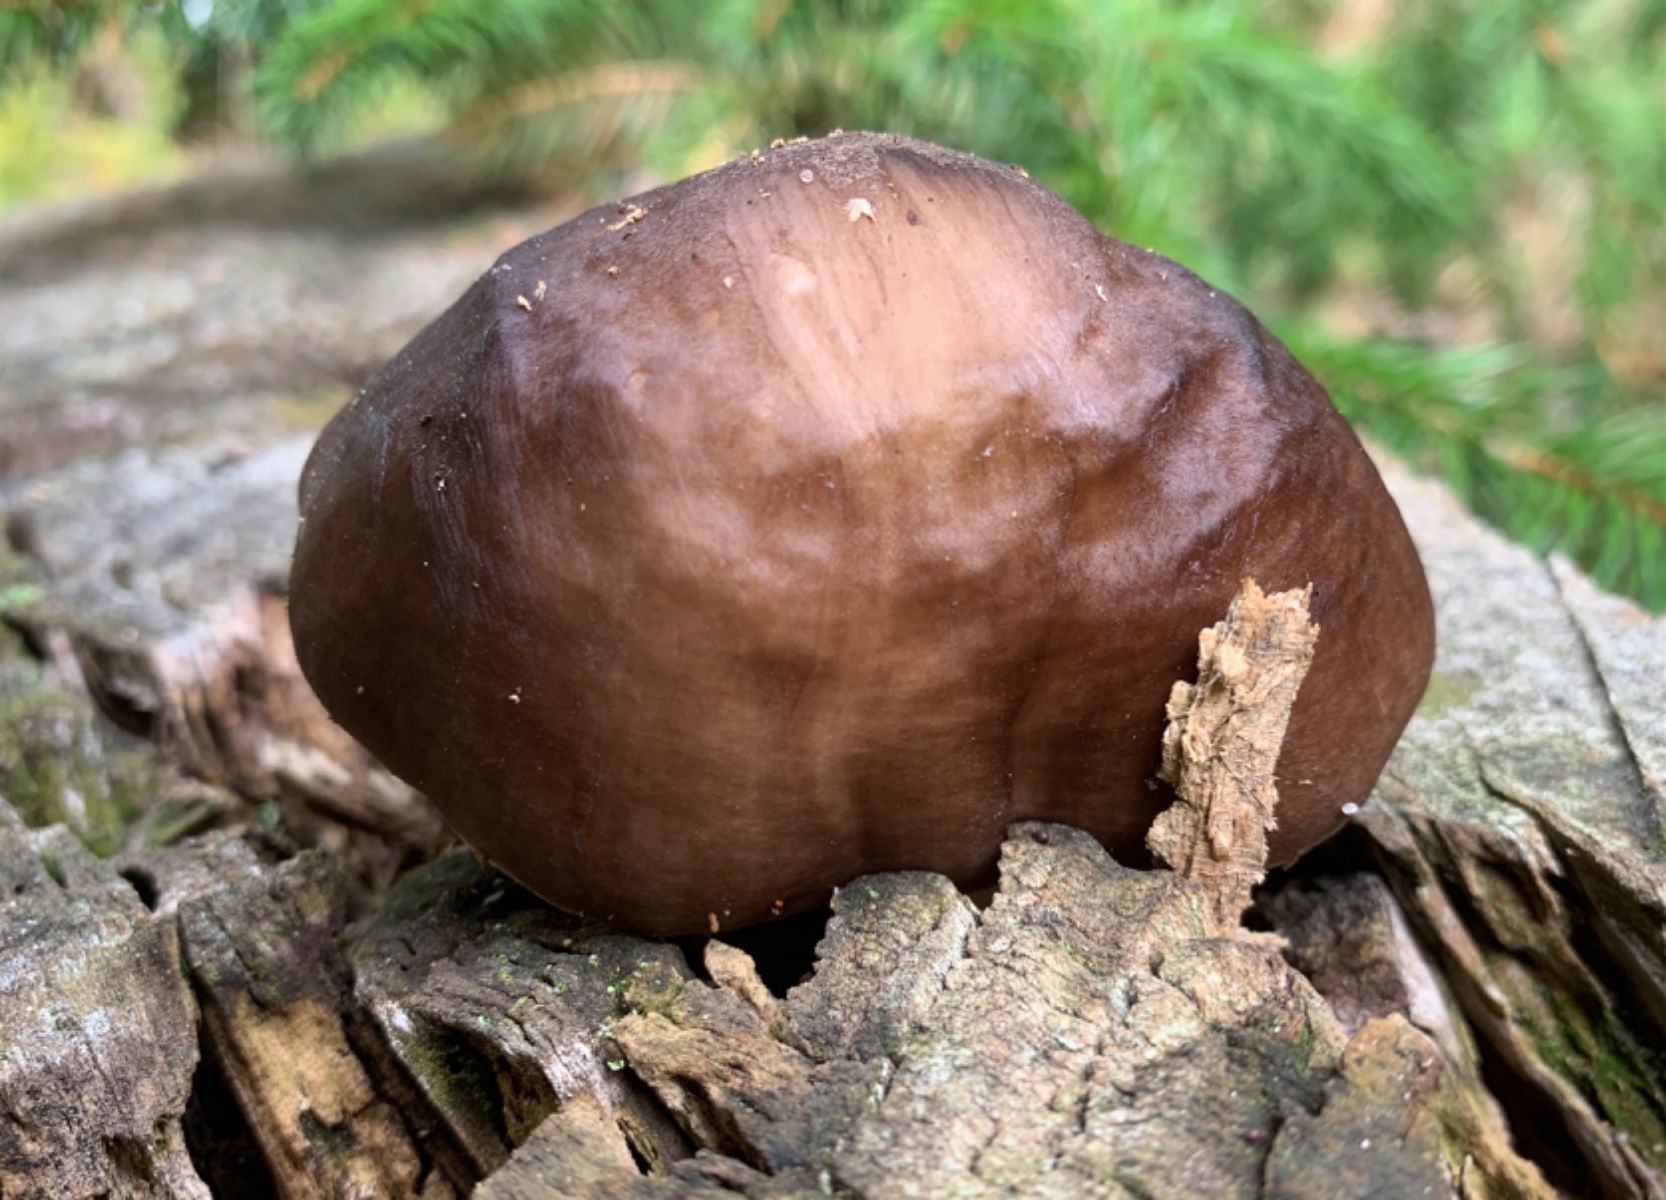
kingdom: Fungi
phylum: Basidiomycota
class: Agaricomycetes
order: Agaricales
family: Pluteaceae
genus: Pluteus
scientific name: Pluteus cervinus
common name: sodfarvet skærmhat
